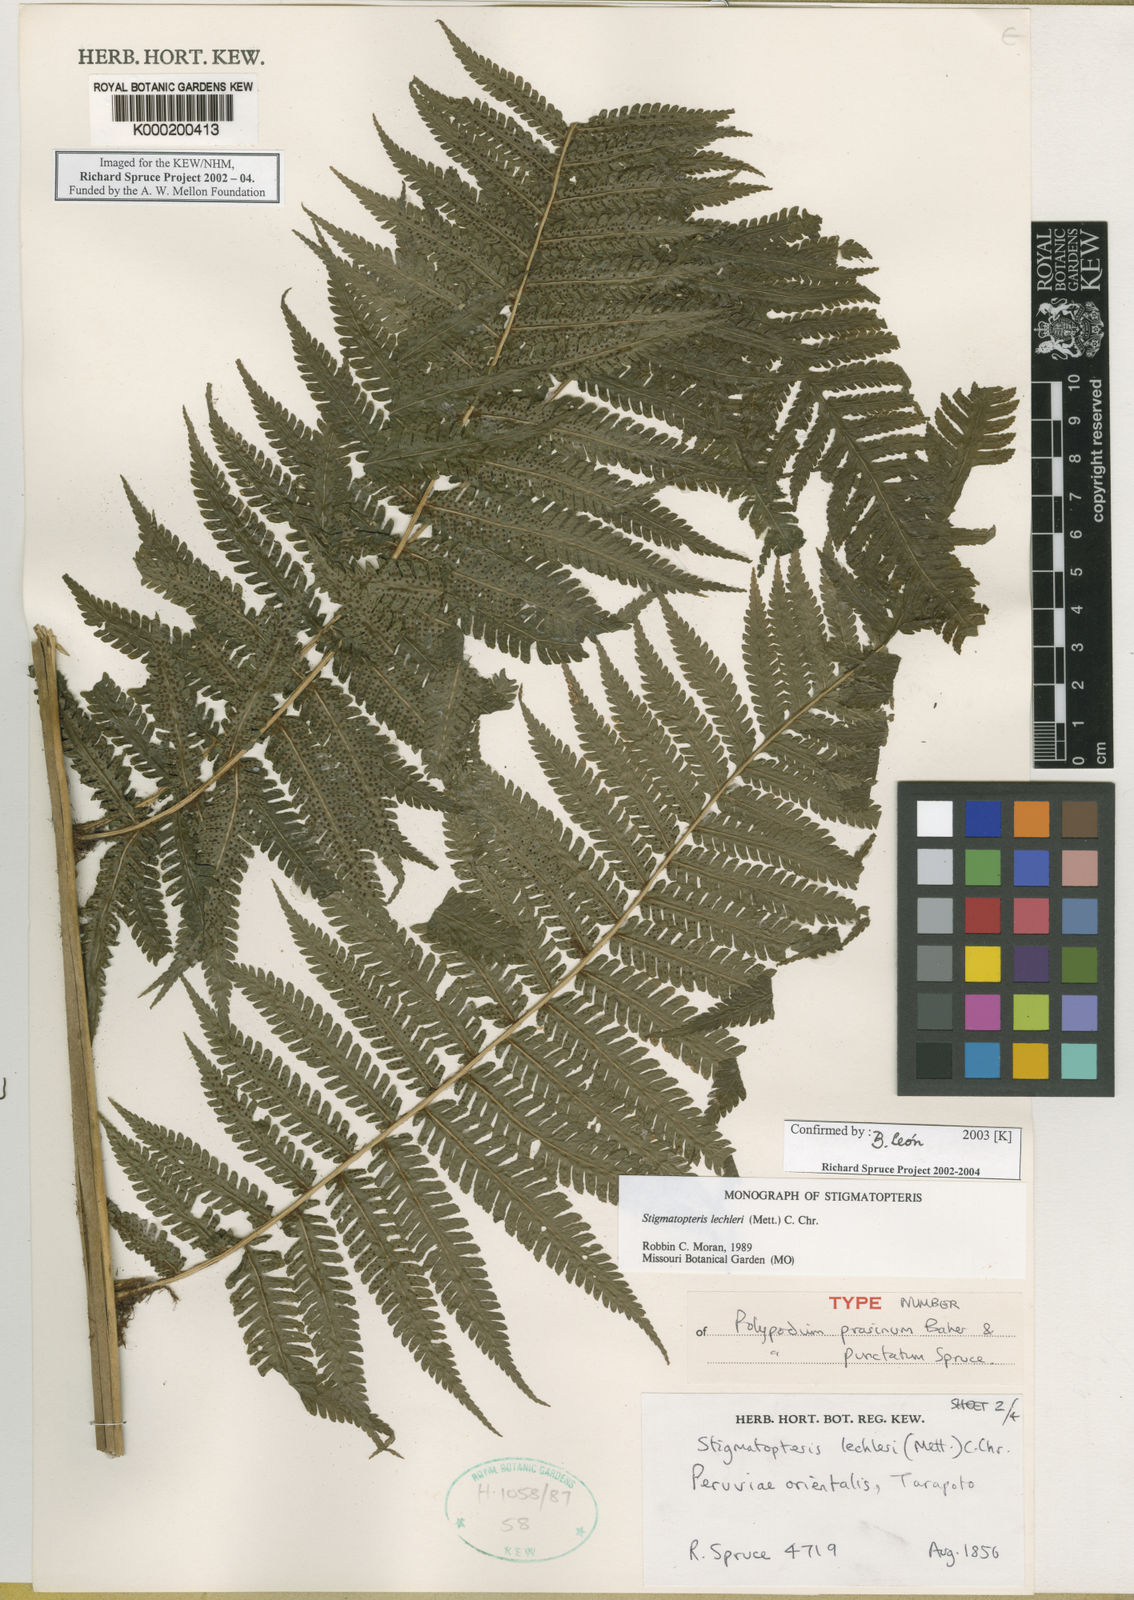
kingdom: Plantae
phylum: Tracheophyta
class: Polypodiopsida
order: Polypodiales
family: Dryopteridaceae
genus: Stigmatopteris
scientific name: Stigmatopteris lechleri
